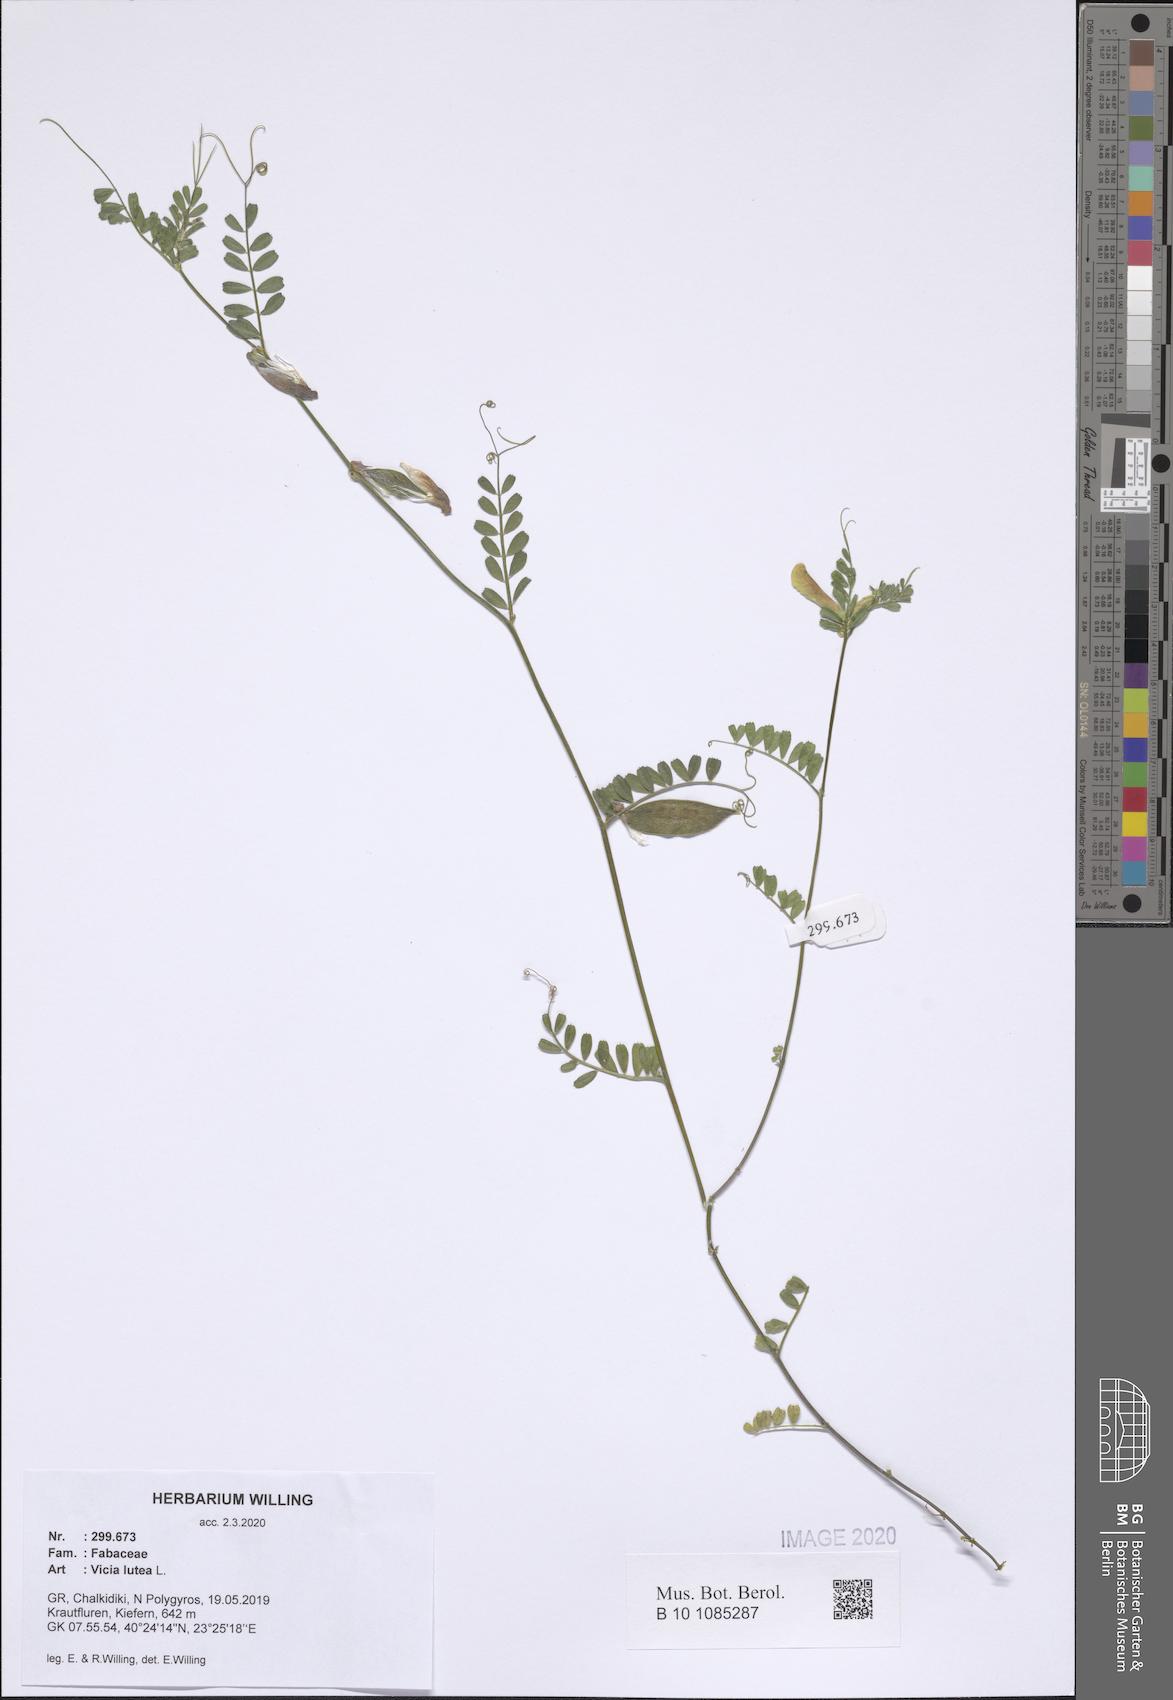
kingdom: Plantae
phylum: Tracheophyta
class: Magnoliopsida
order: Fabales
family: Fabaceae
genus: Vicia
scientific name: Vicia lutea
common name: Smooth yellow vetch
